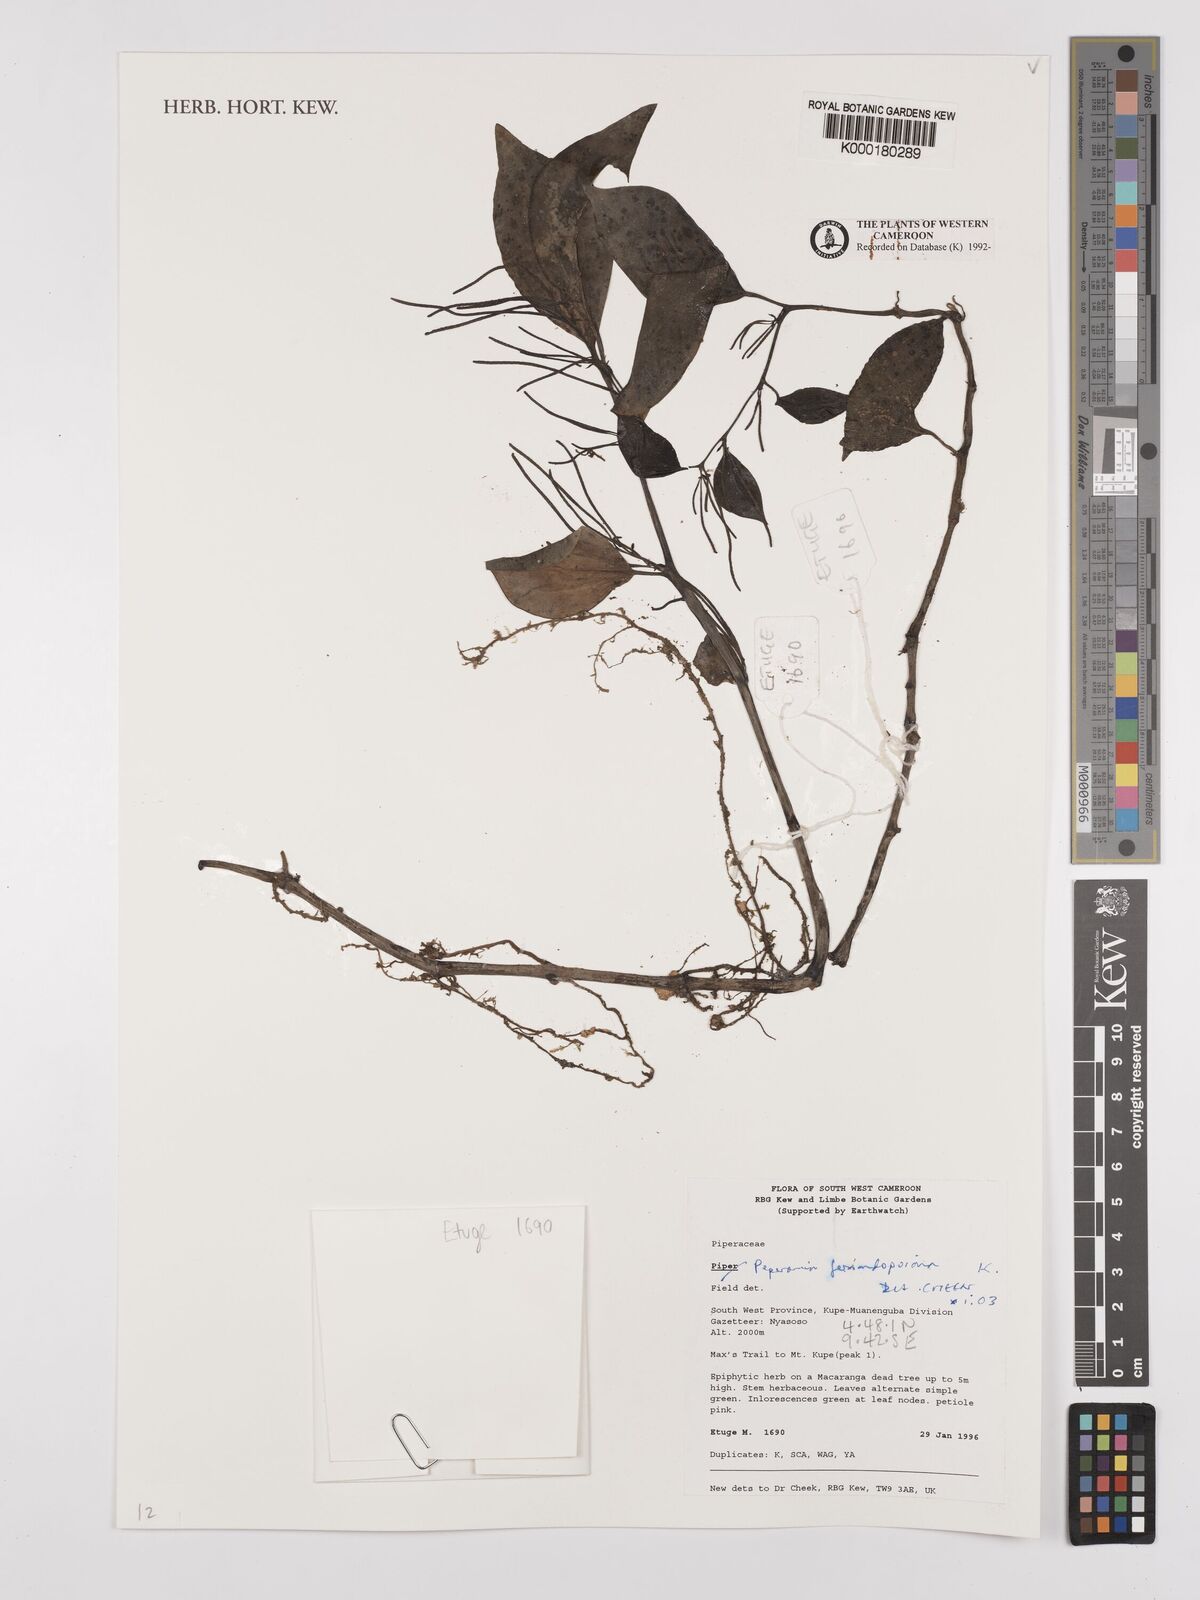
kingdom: Plantae
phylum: Tracheophyta
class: Magnoliopsida
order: Piperales
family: Piperaceae
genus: Peperomia
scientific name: Peperomia fernandopoiana
